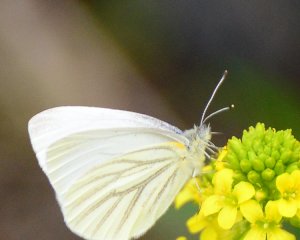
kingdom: Animalia
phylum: Arthropoda
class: Insecta
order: Lepidoptera
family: Pieridae
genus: Pieris
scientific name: Pieris oleracea
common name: Mustard White
